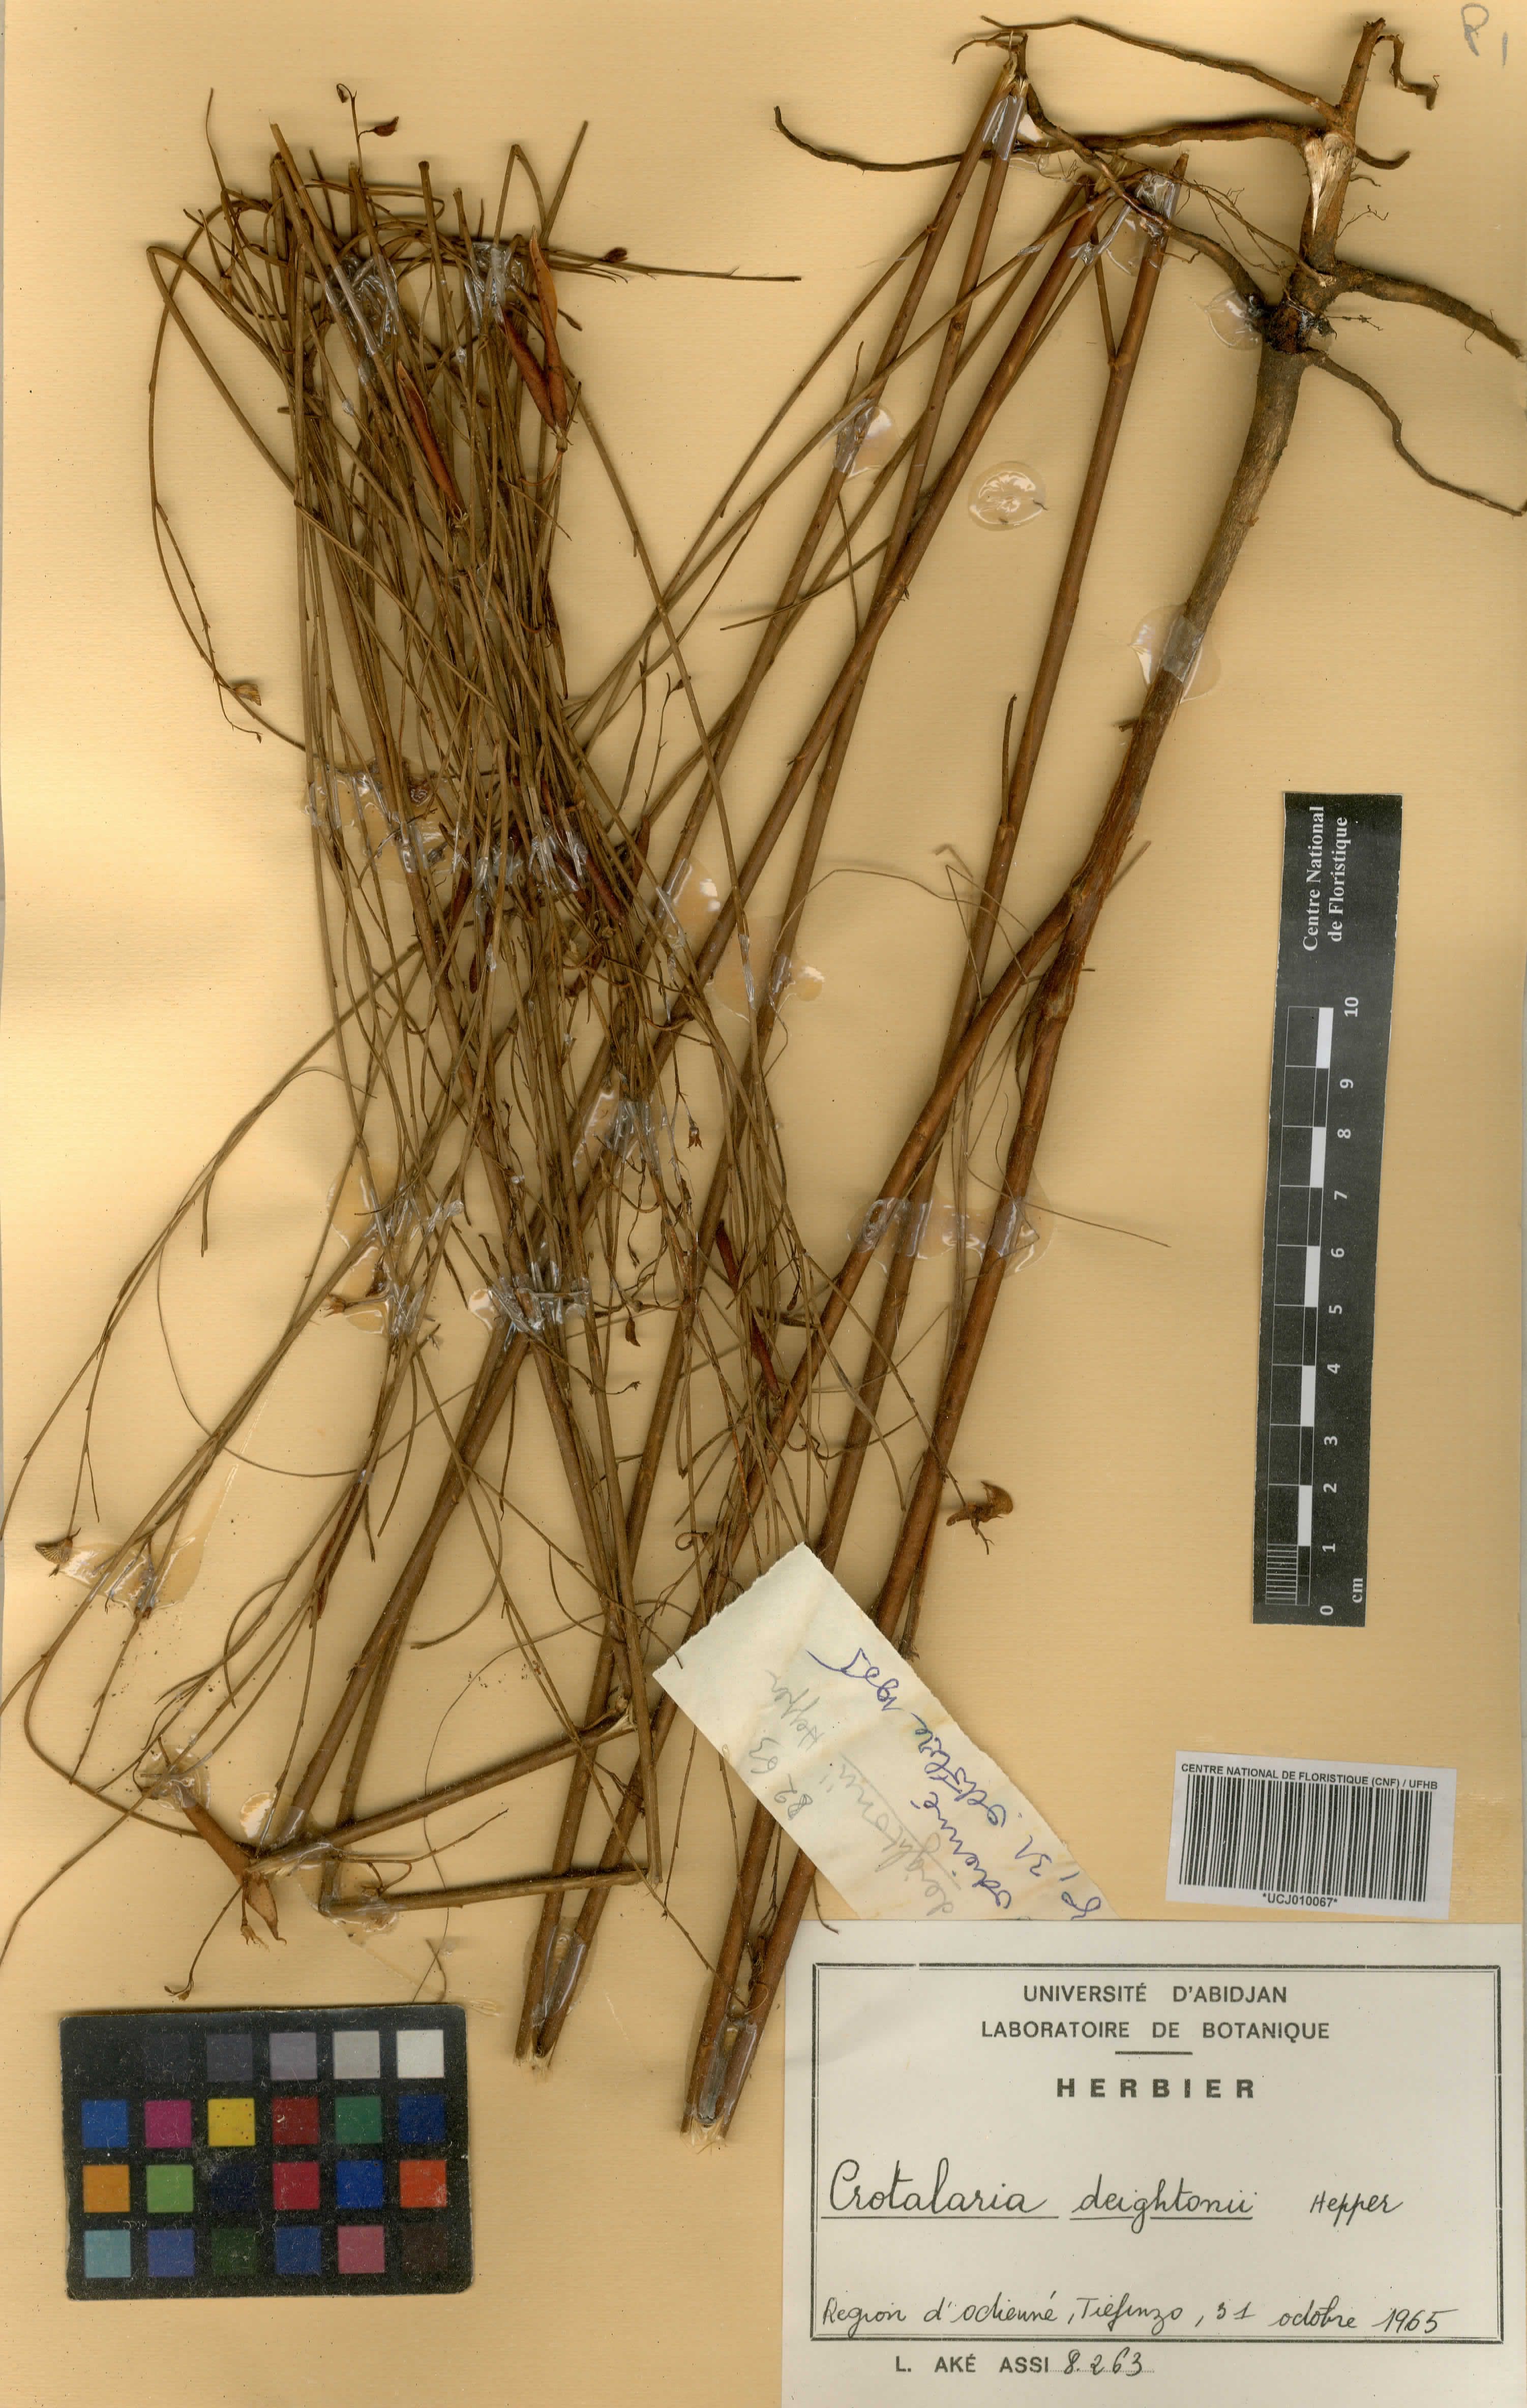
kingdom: Plantae
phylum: Tracheophyta
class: Magnoliopsida
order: Fabales
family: Fabaceae
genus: Crotalaria
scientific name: Crotalaria deightonii
